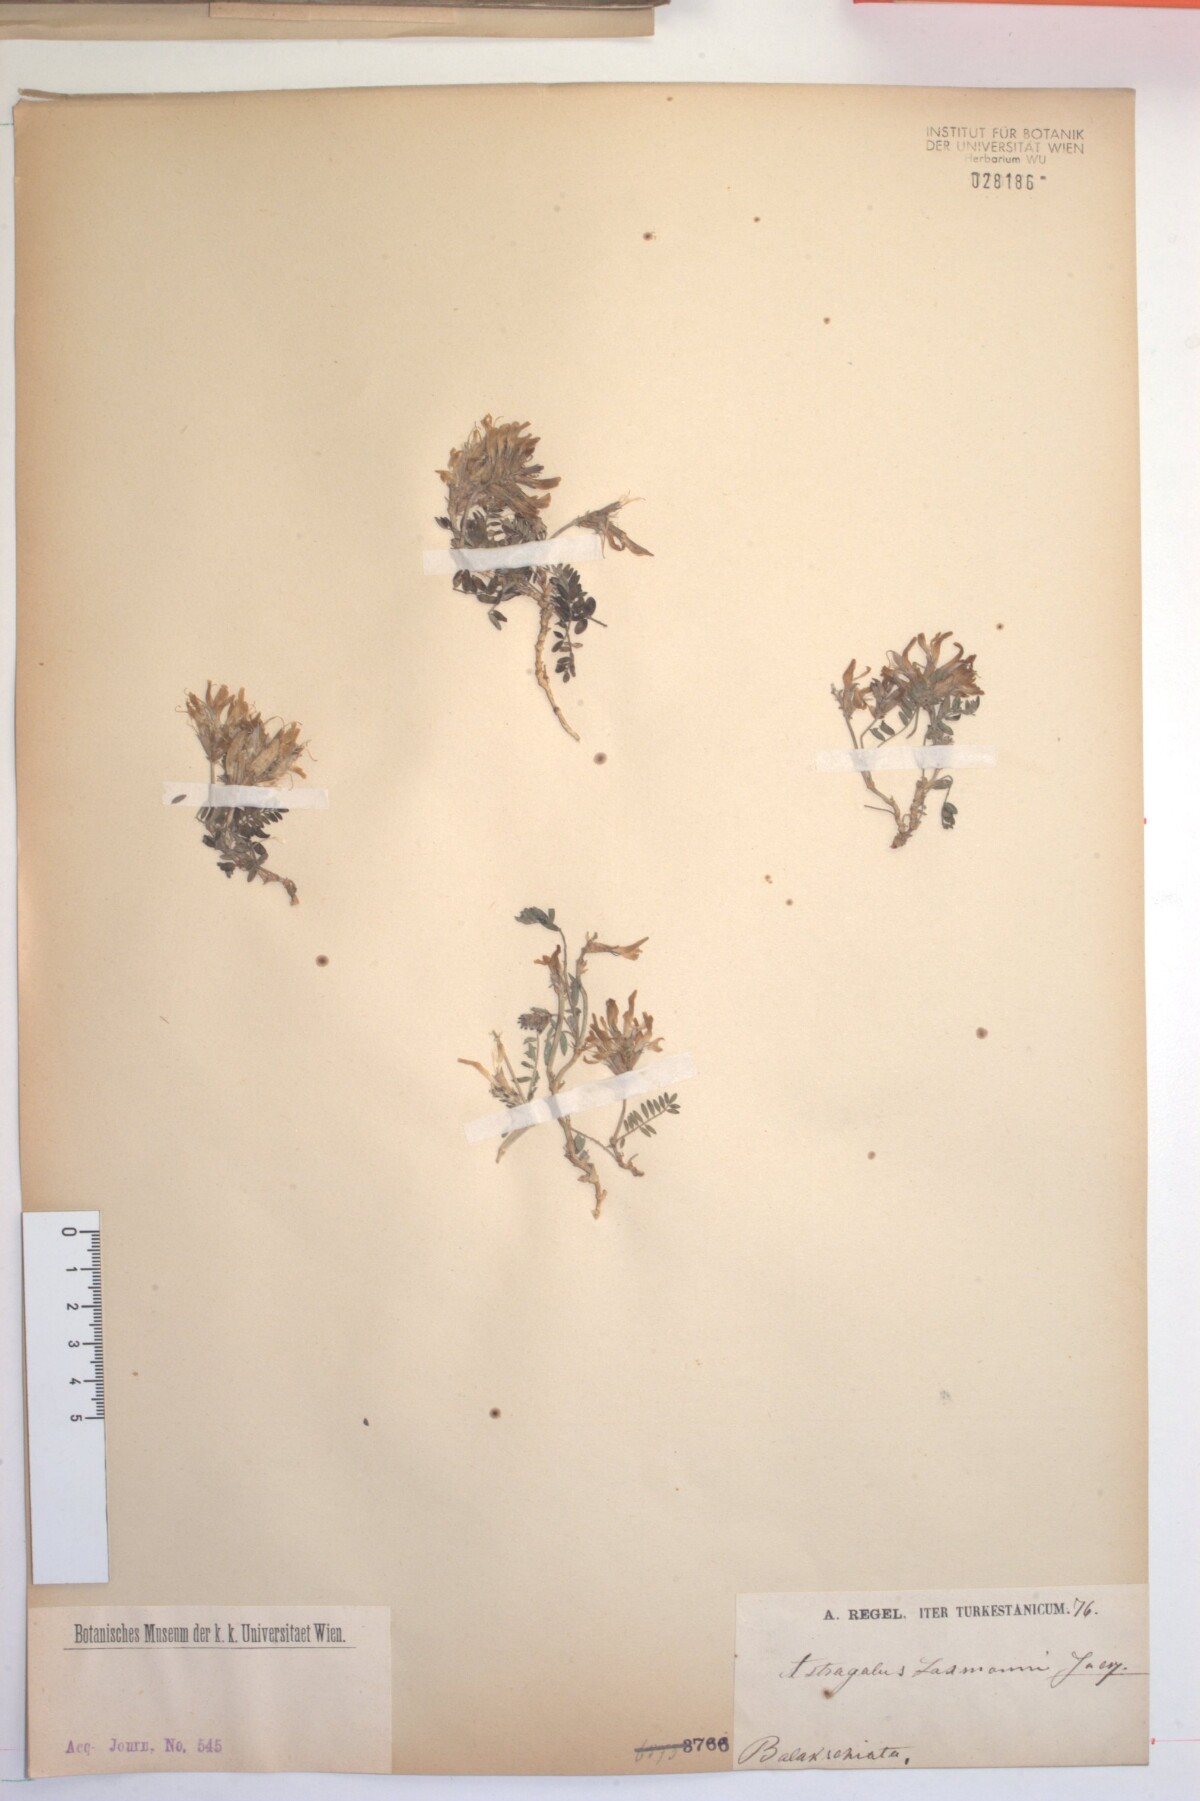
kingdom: Plantae
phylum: Tracheophyta
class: Magnoliopsida
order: Fabales
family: Fabaceae
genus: Astragalus
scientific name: Astragalus laxmannii
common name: Laxmann's milk-vetch
